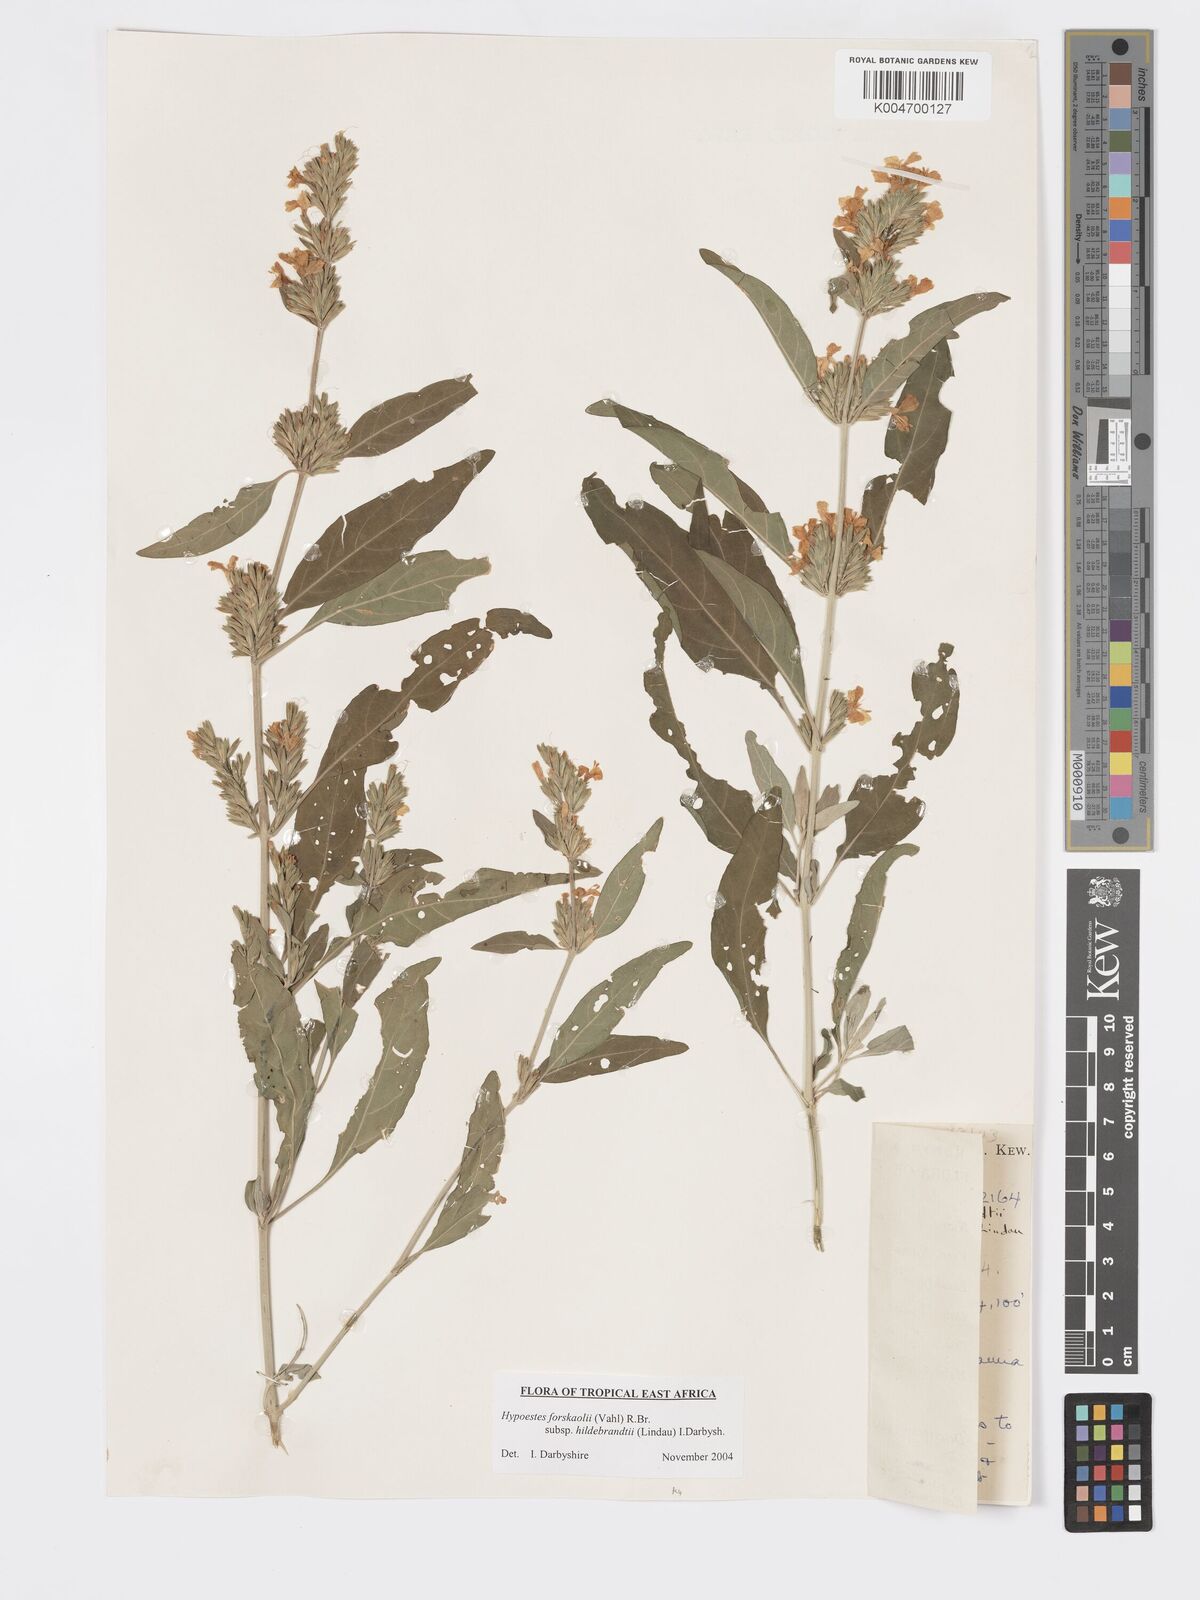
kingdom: Plantae
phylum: Tracheophyta
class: Magnoliopsida
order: Lamiales
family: Acanthaceae
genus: Hypoestes
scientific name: Hypoestes forskaolii
